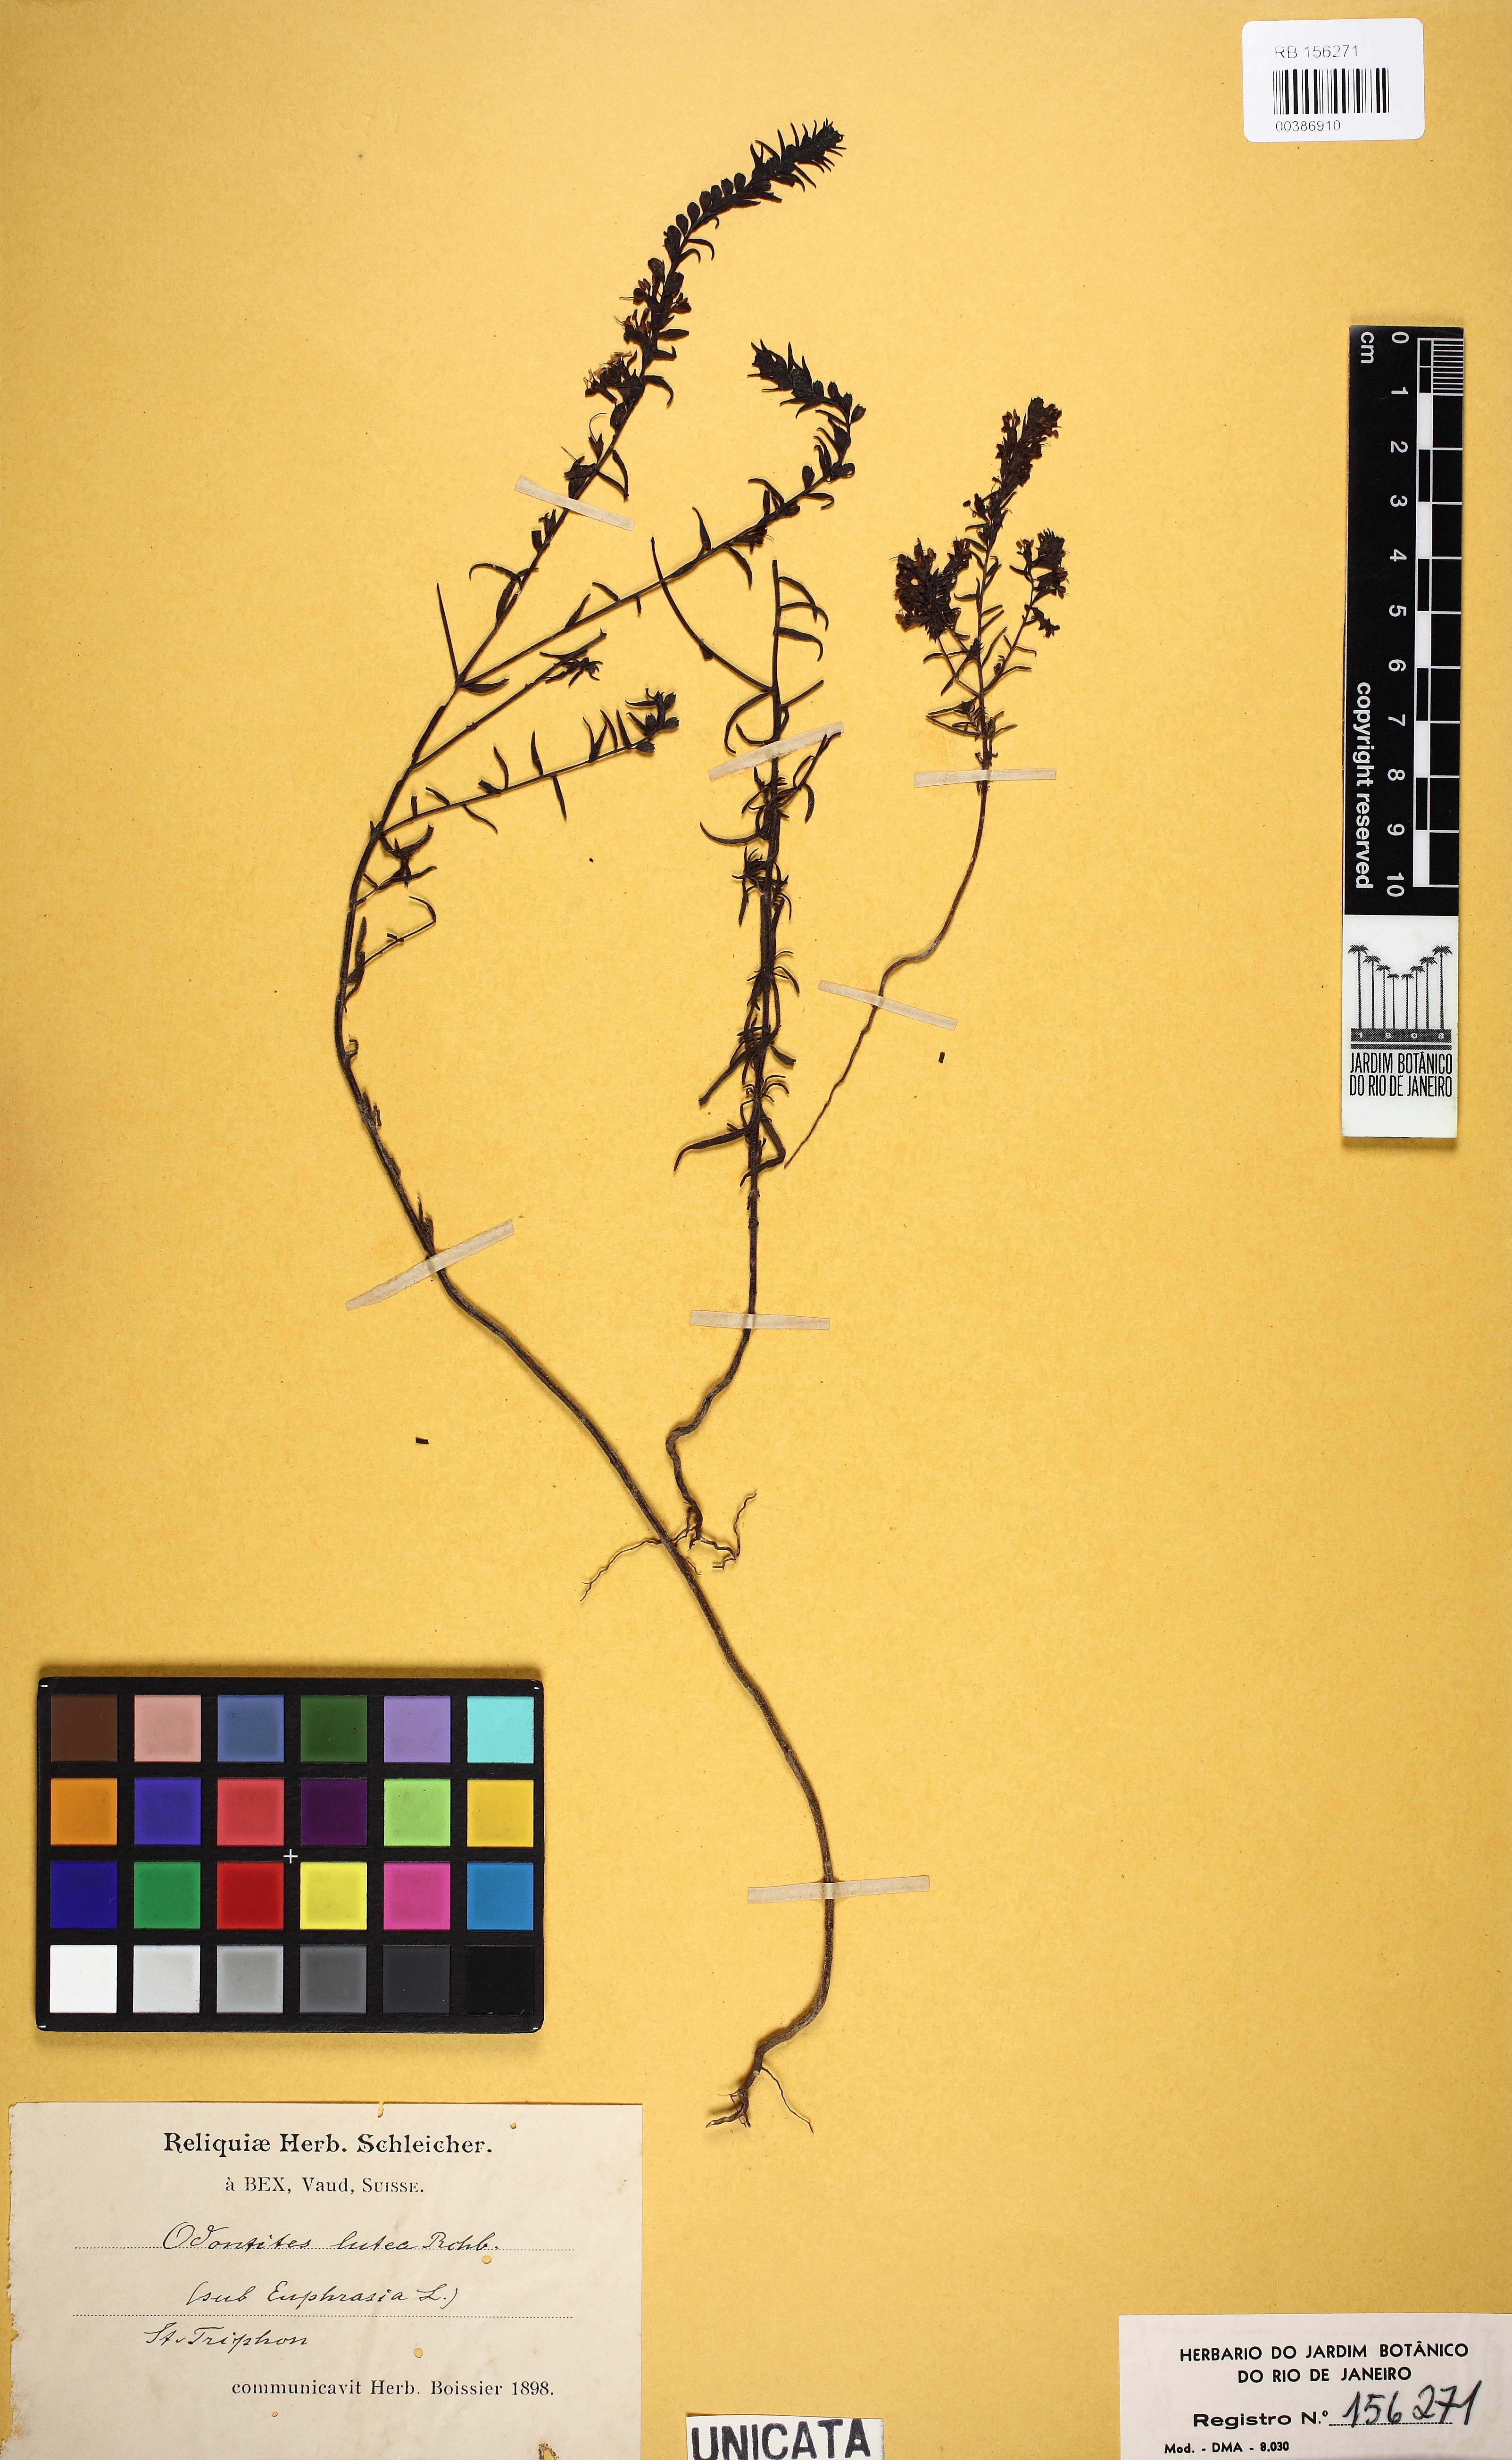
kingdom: Plantae
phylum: Tracheophyta
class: Magnoliopsida
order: Lamiales
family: Orobanchaceae
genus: Odontites
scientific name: Odontites luteus
